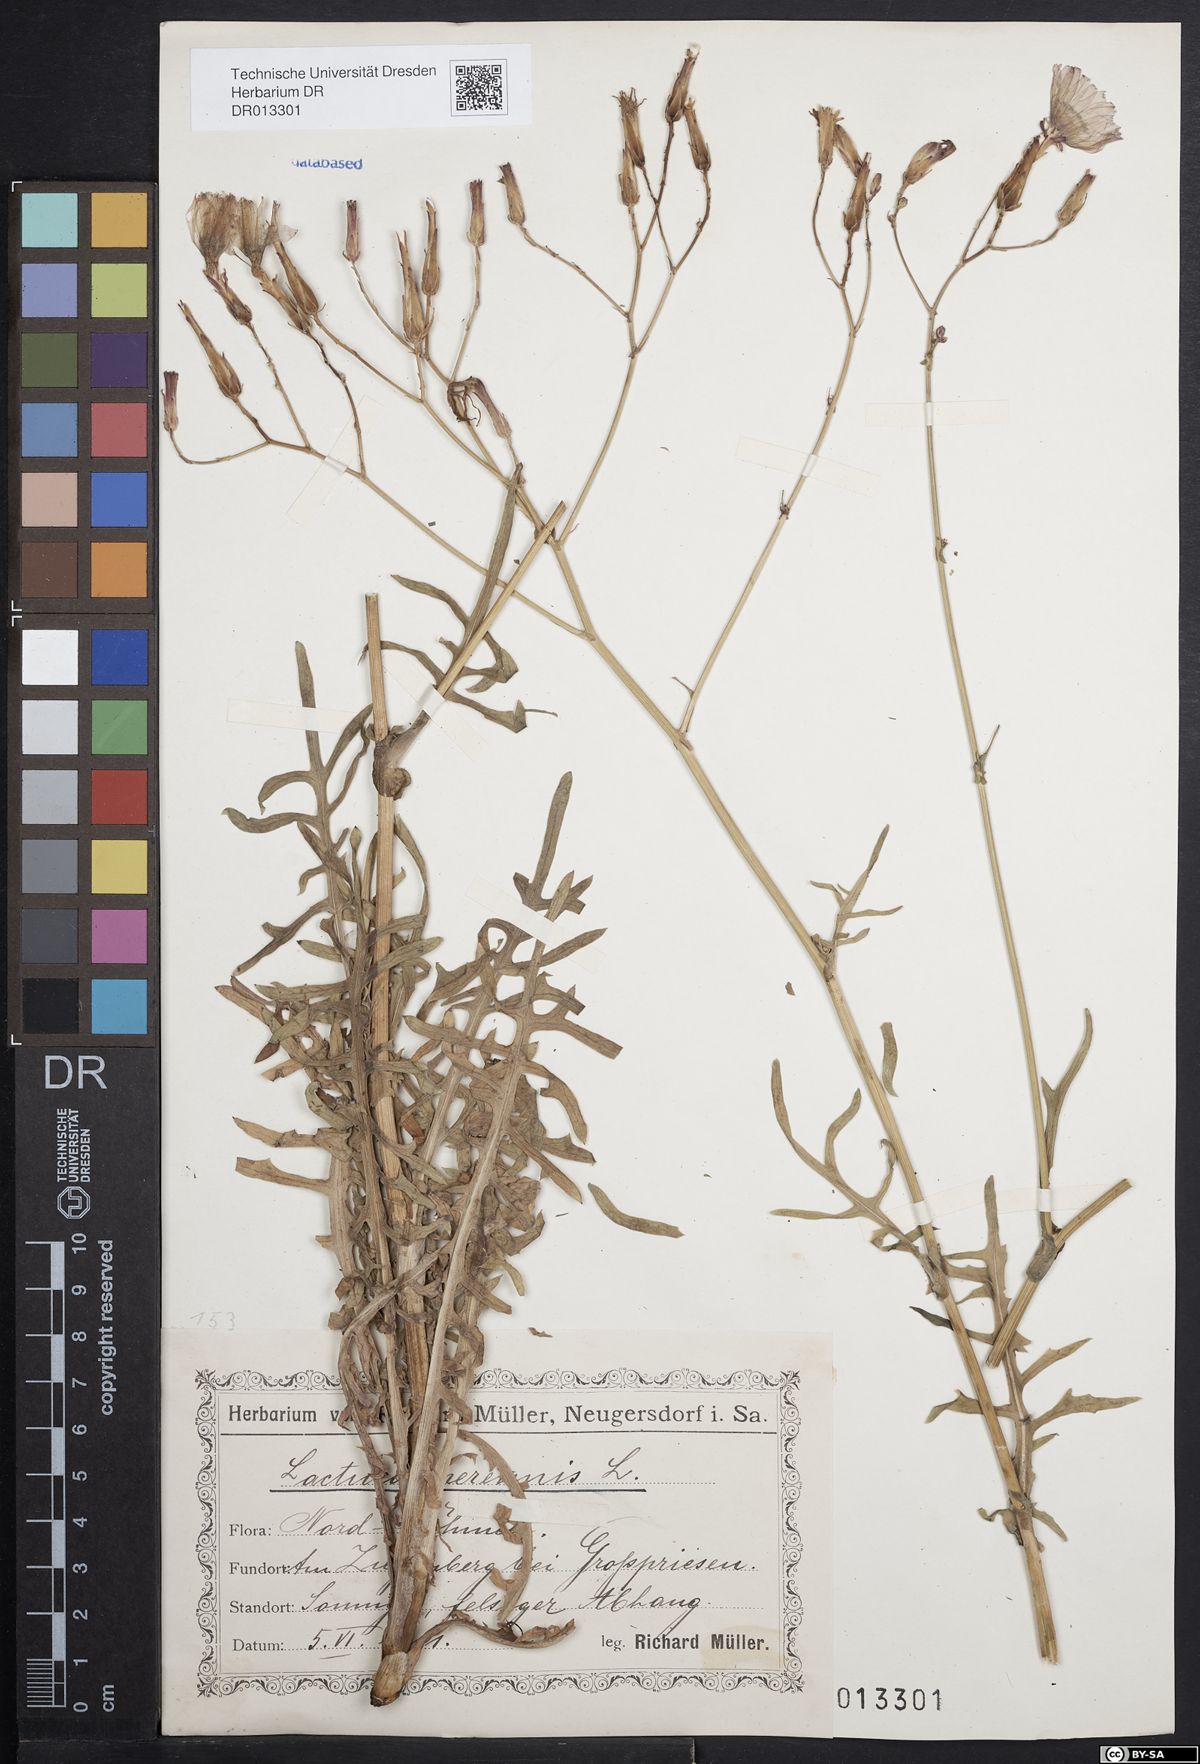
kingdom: Plantae
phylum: Tracheophyta
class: Magnoliopsida
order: Asterales
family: Asteraceae
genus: Lactuca
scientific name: Lactuca perennis
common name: Mountain lettuce
